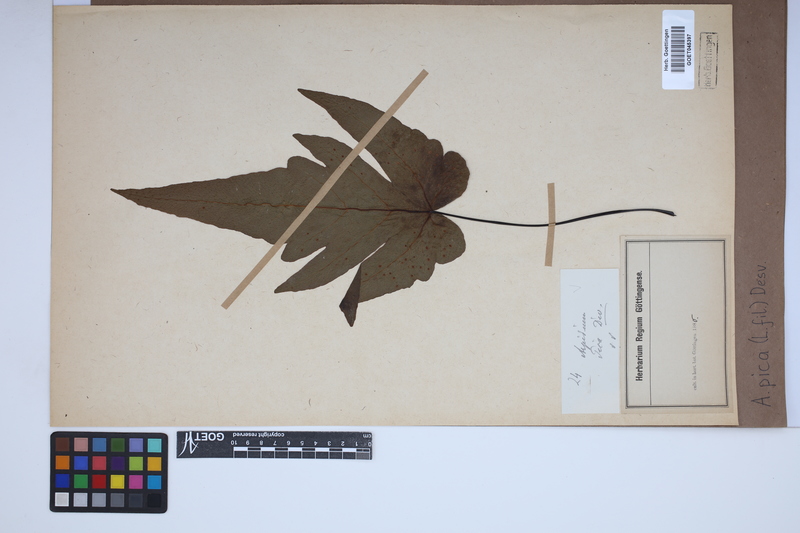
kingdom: Plantae
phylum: Tracheophyta
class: Polypodiopsida
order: Polypodiales
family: Tectariaceae
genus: Tectaria
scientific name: Tectaria pica
